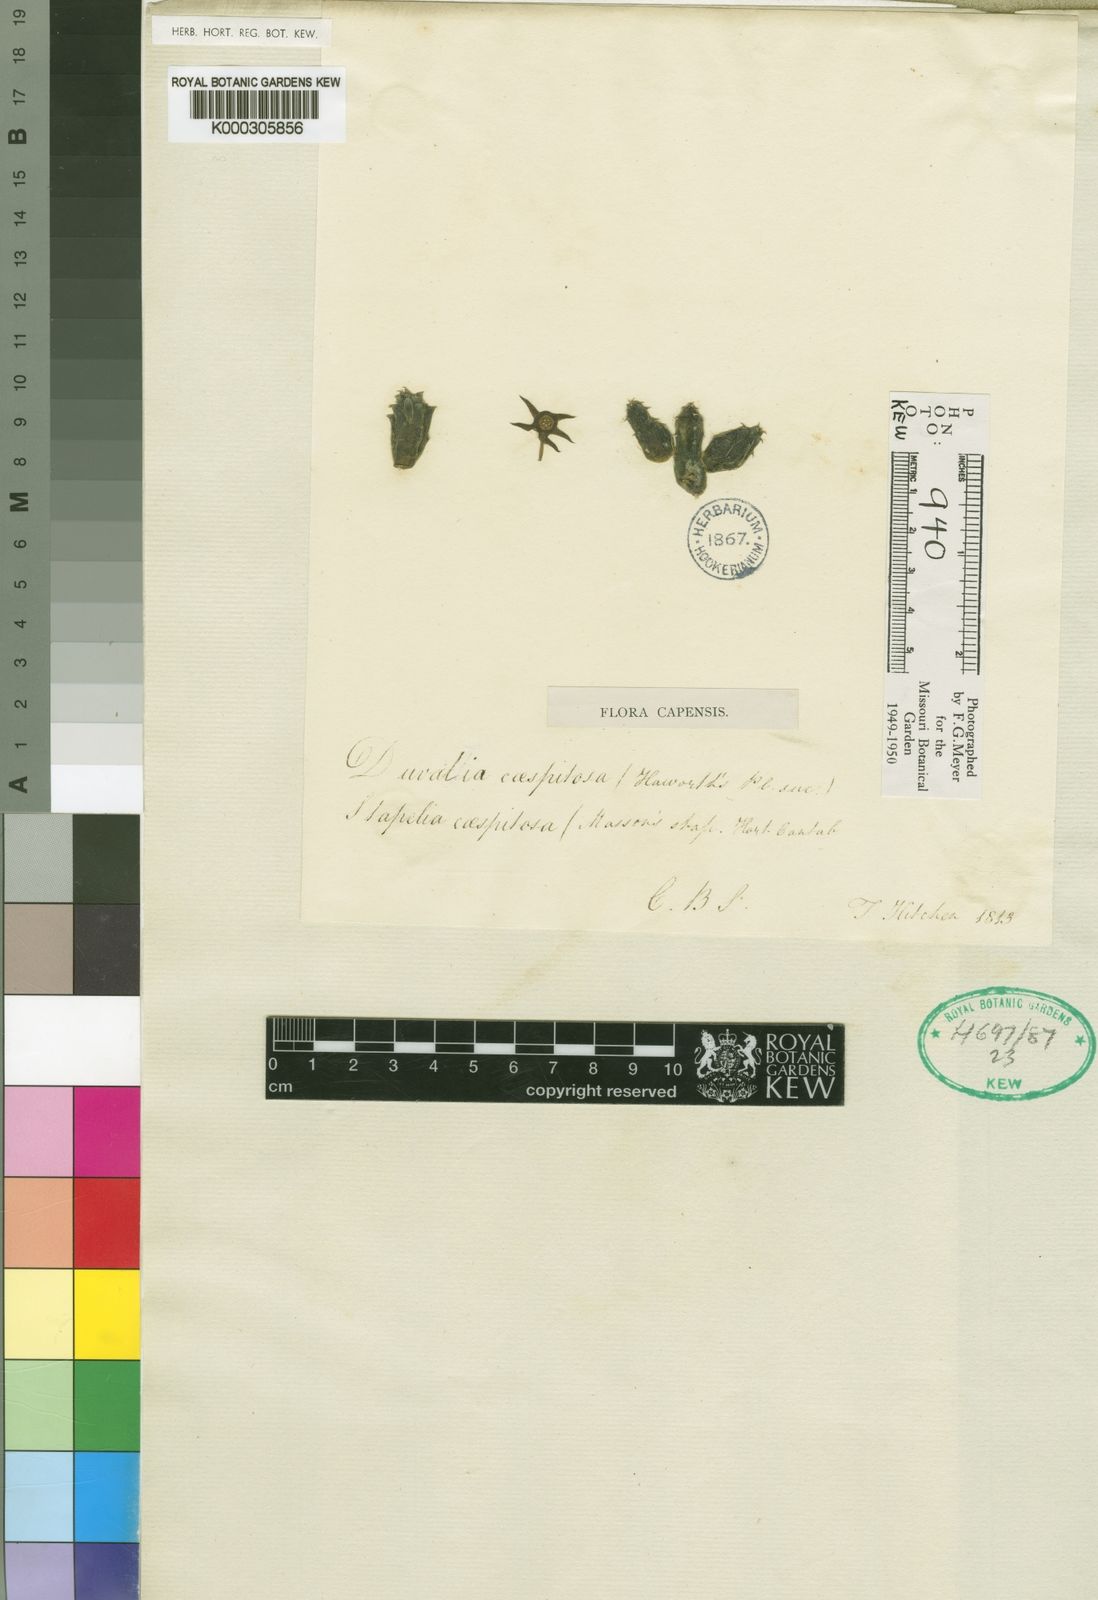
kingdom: Plantae
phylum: Tracheophyta
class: Magnoliopsida
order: Gentianales
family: Apocynaceae
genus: Ceropegia
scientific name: Ceropegia caespitosa
